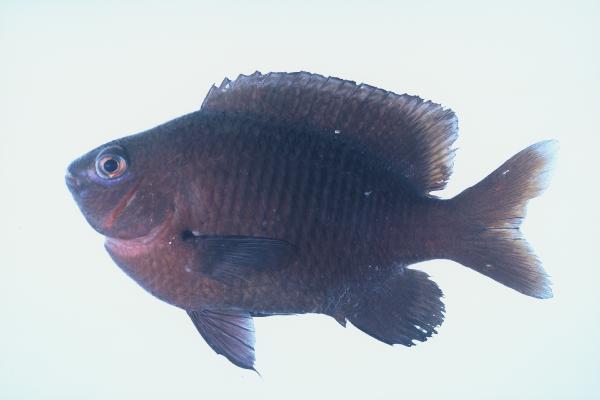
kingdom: Animalia
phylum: Chordata
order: Perciformes
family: Pomacentridae
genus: Stegastes
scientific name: Stegastes fasciolatus
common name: Pacific gregory
